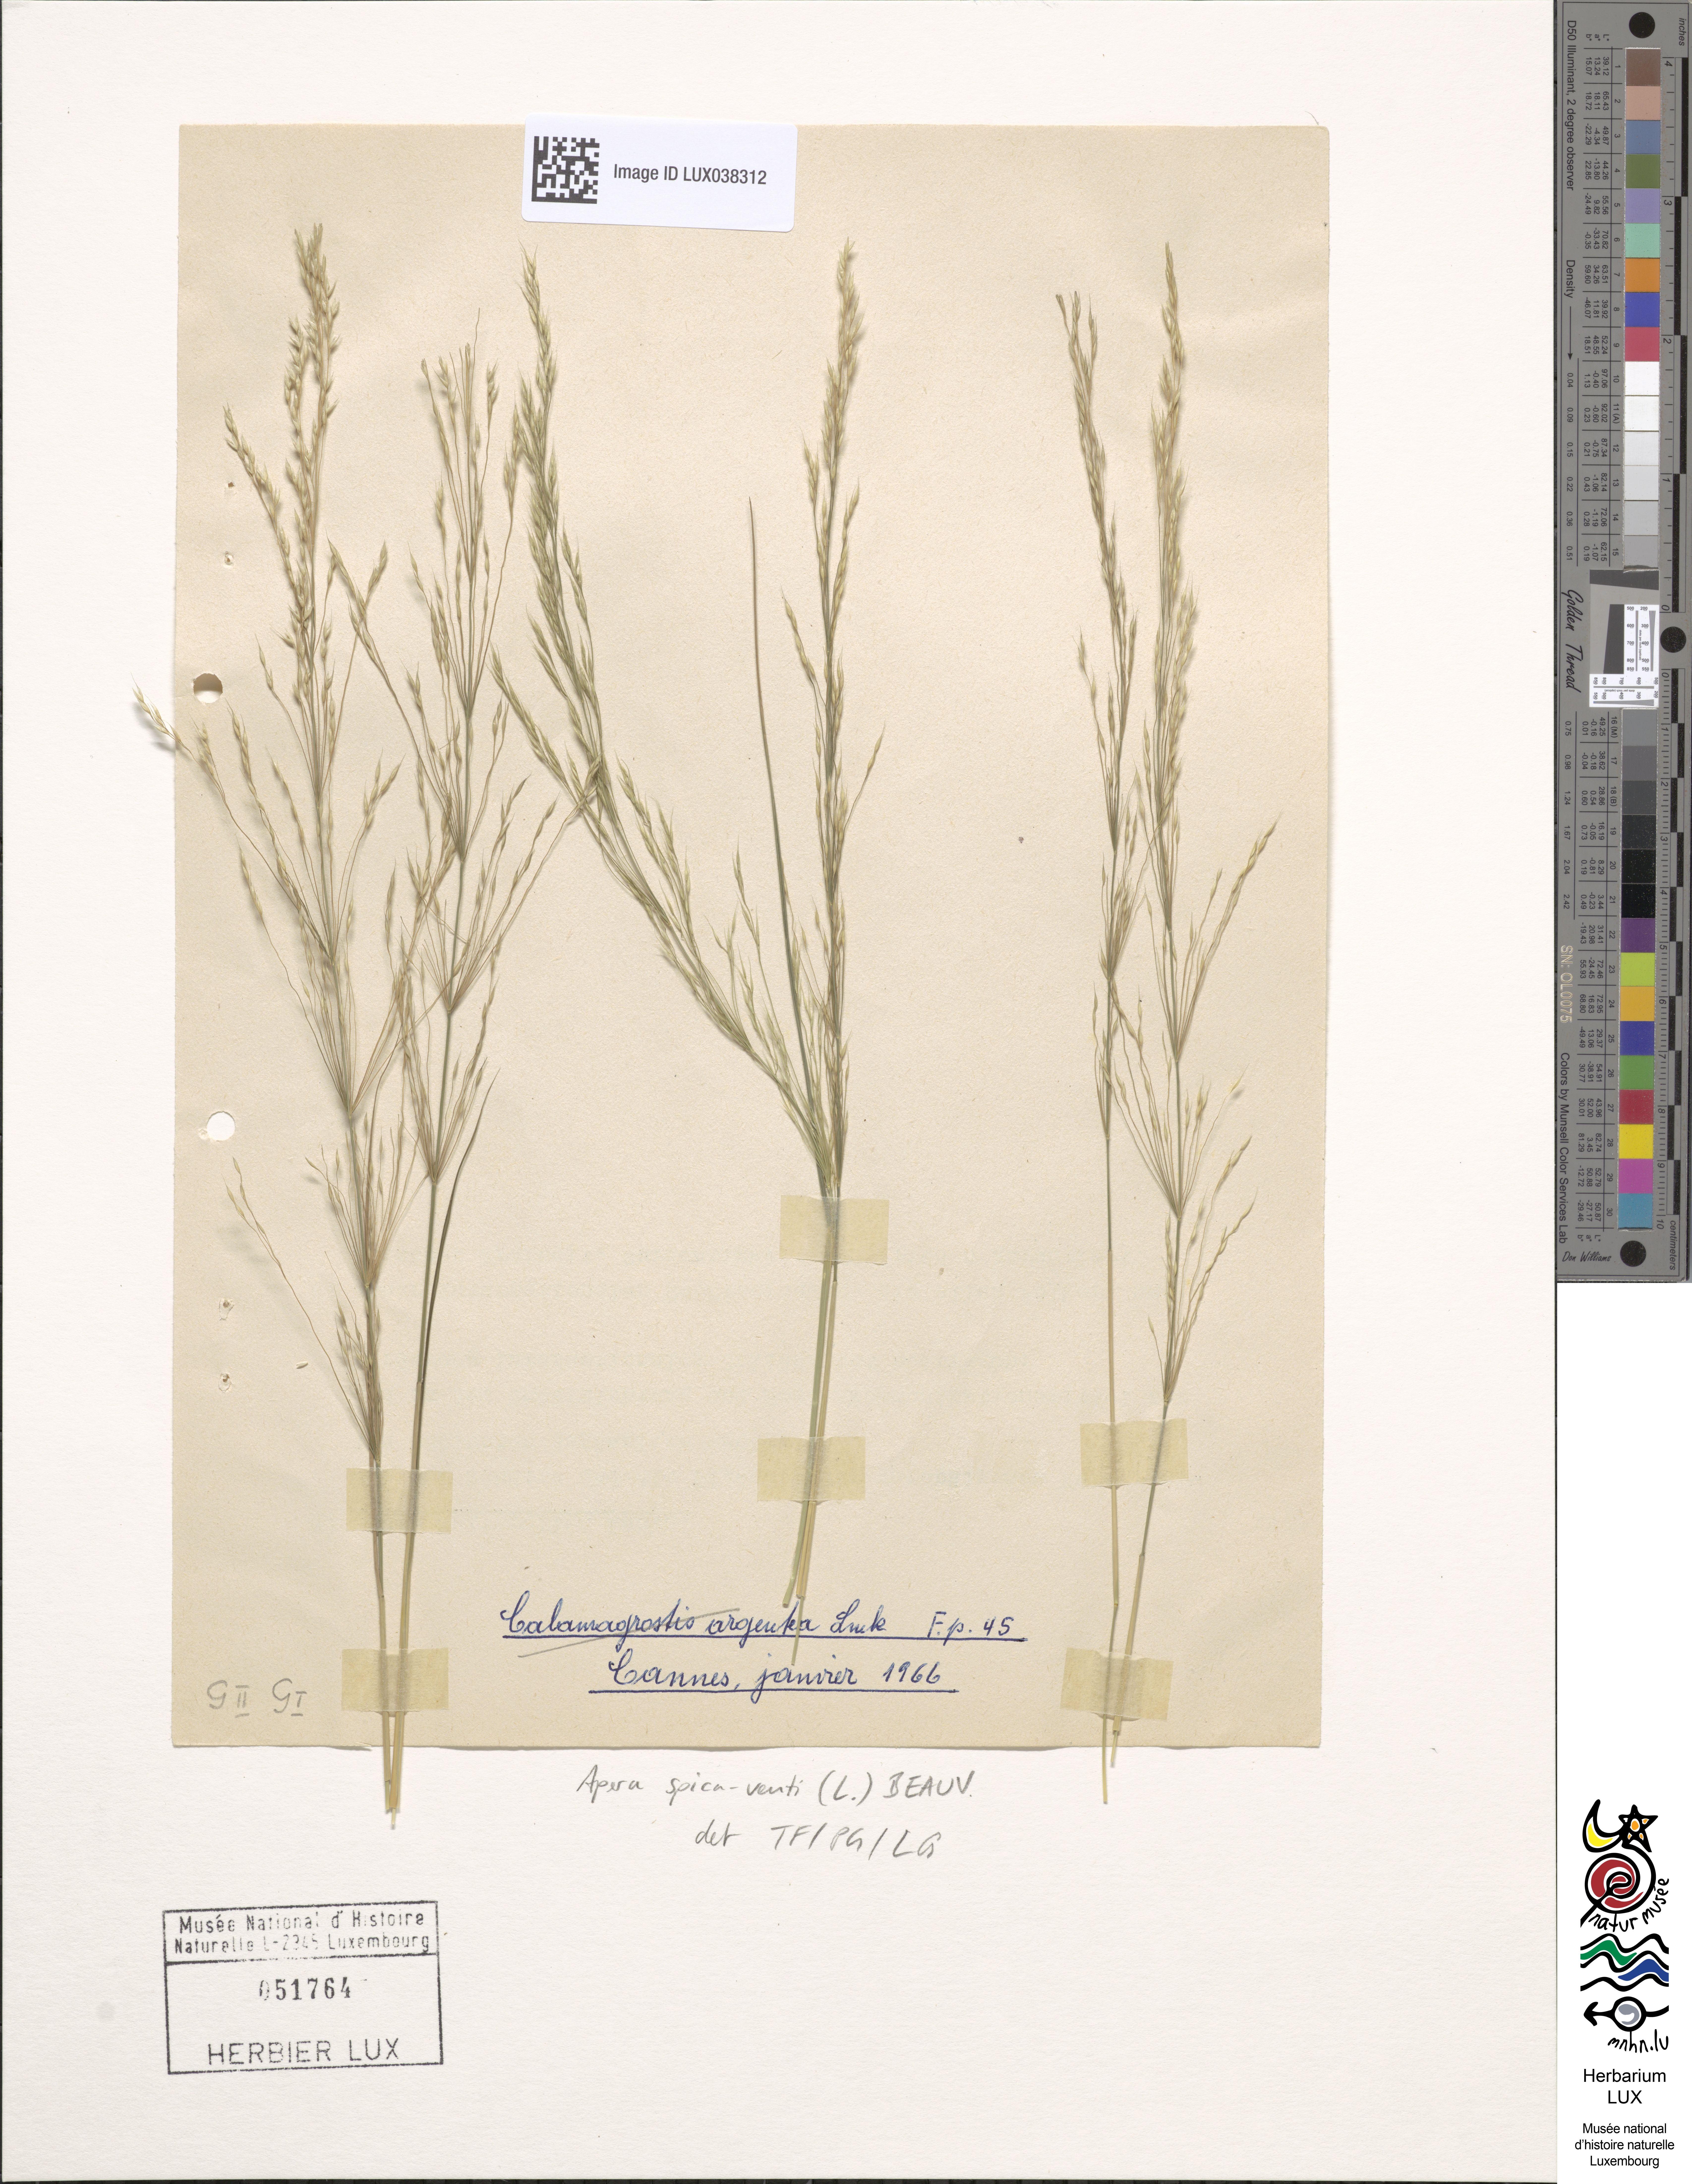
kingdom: Plantae
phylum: Tracheophyta
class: Liliopsida
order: Poales
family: Poaceae
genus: Apera
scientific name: Apera spica-venti
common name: Loose silky-bent
